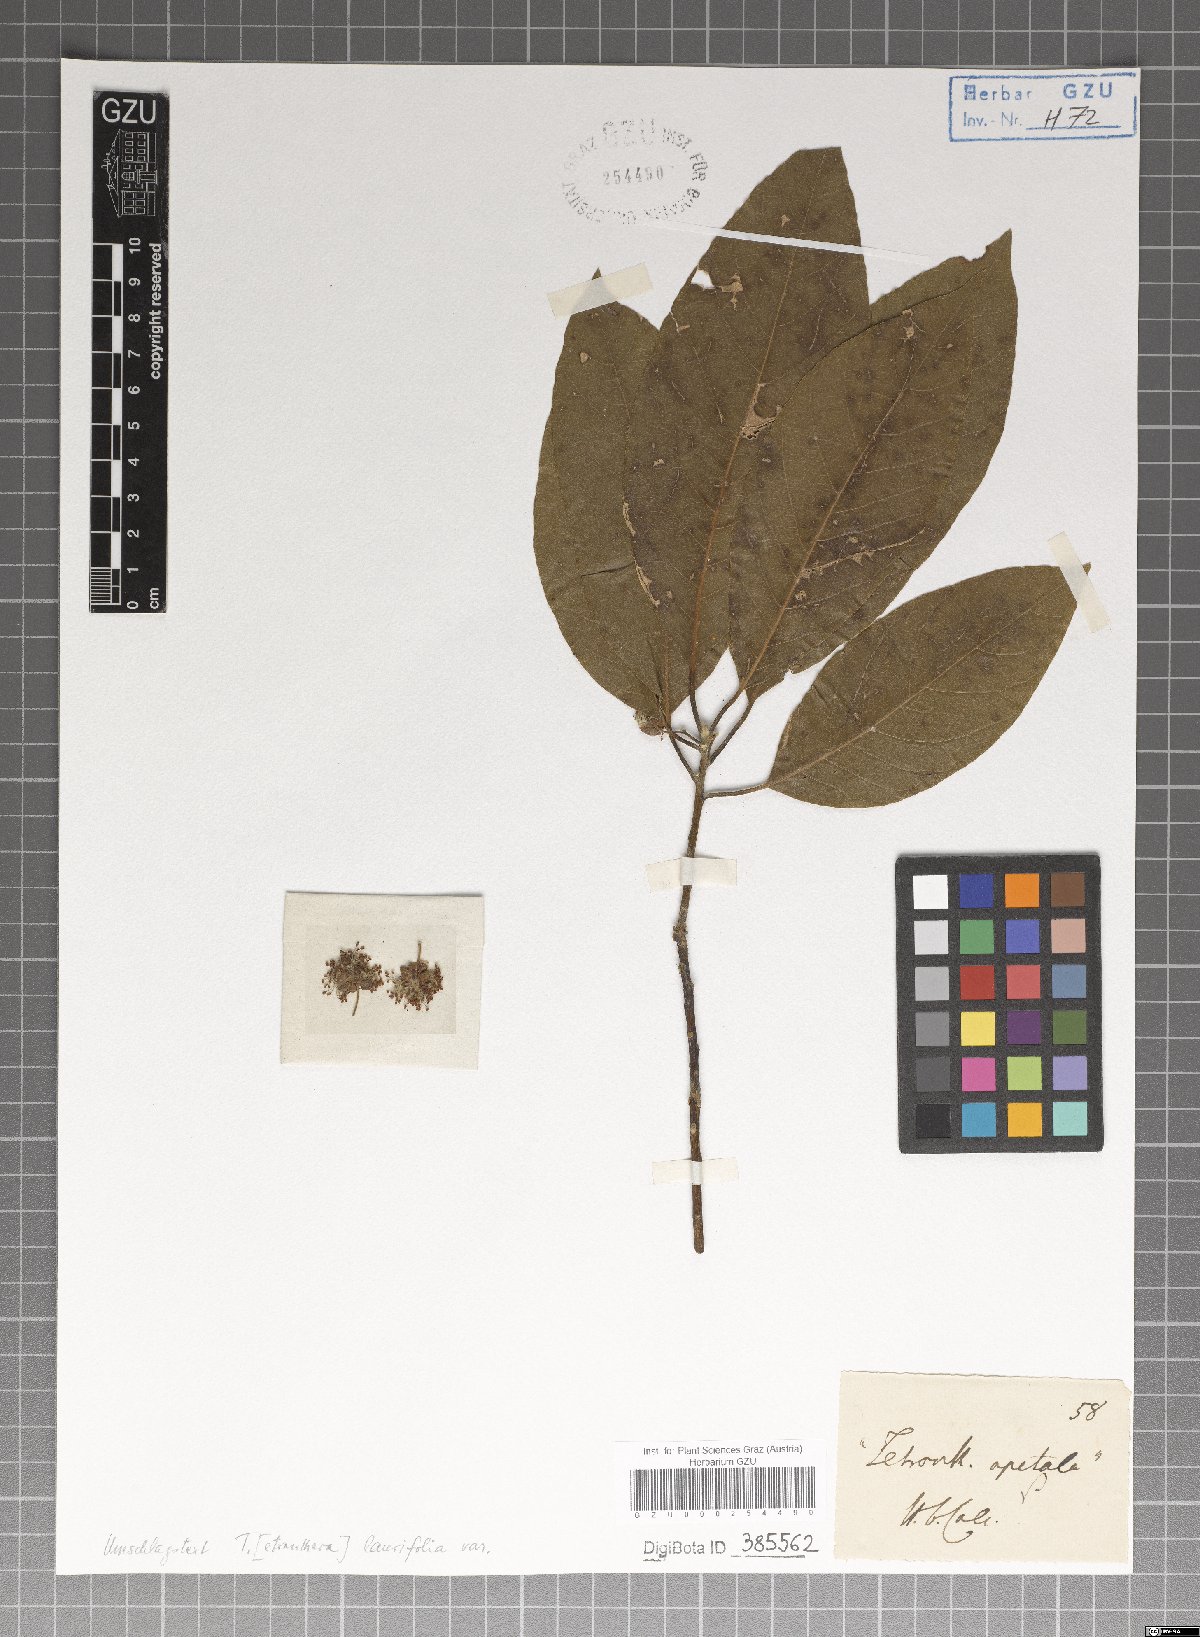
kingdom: Plantae
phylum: Tracheophyta
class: Magnoliopsida
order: Laurales
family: Lauraceae
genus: Litsea
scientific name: Litsea glutinosa
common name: Indian-laurel
